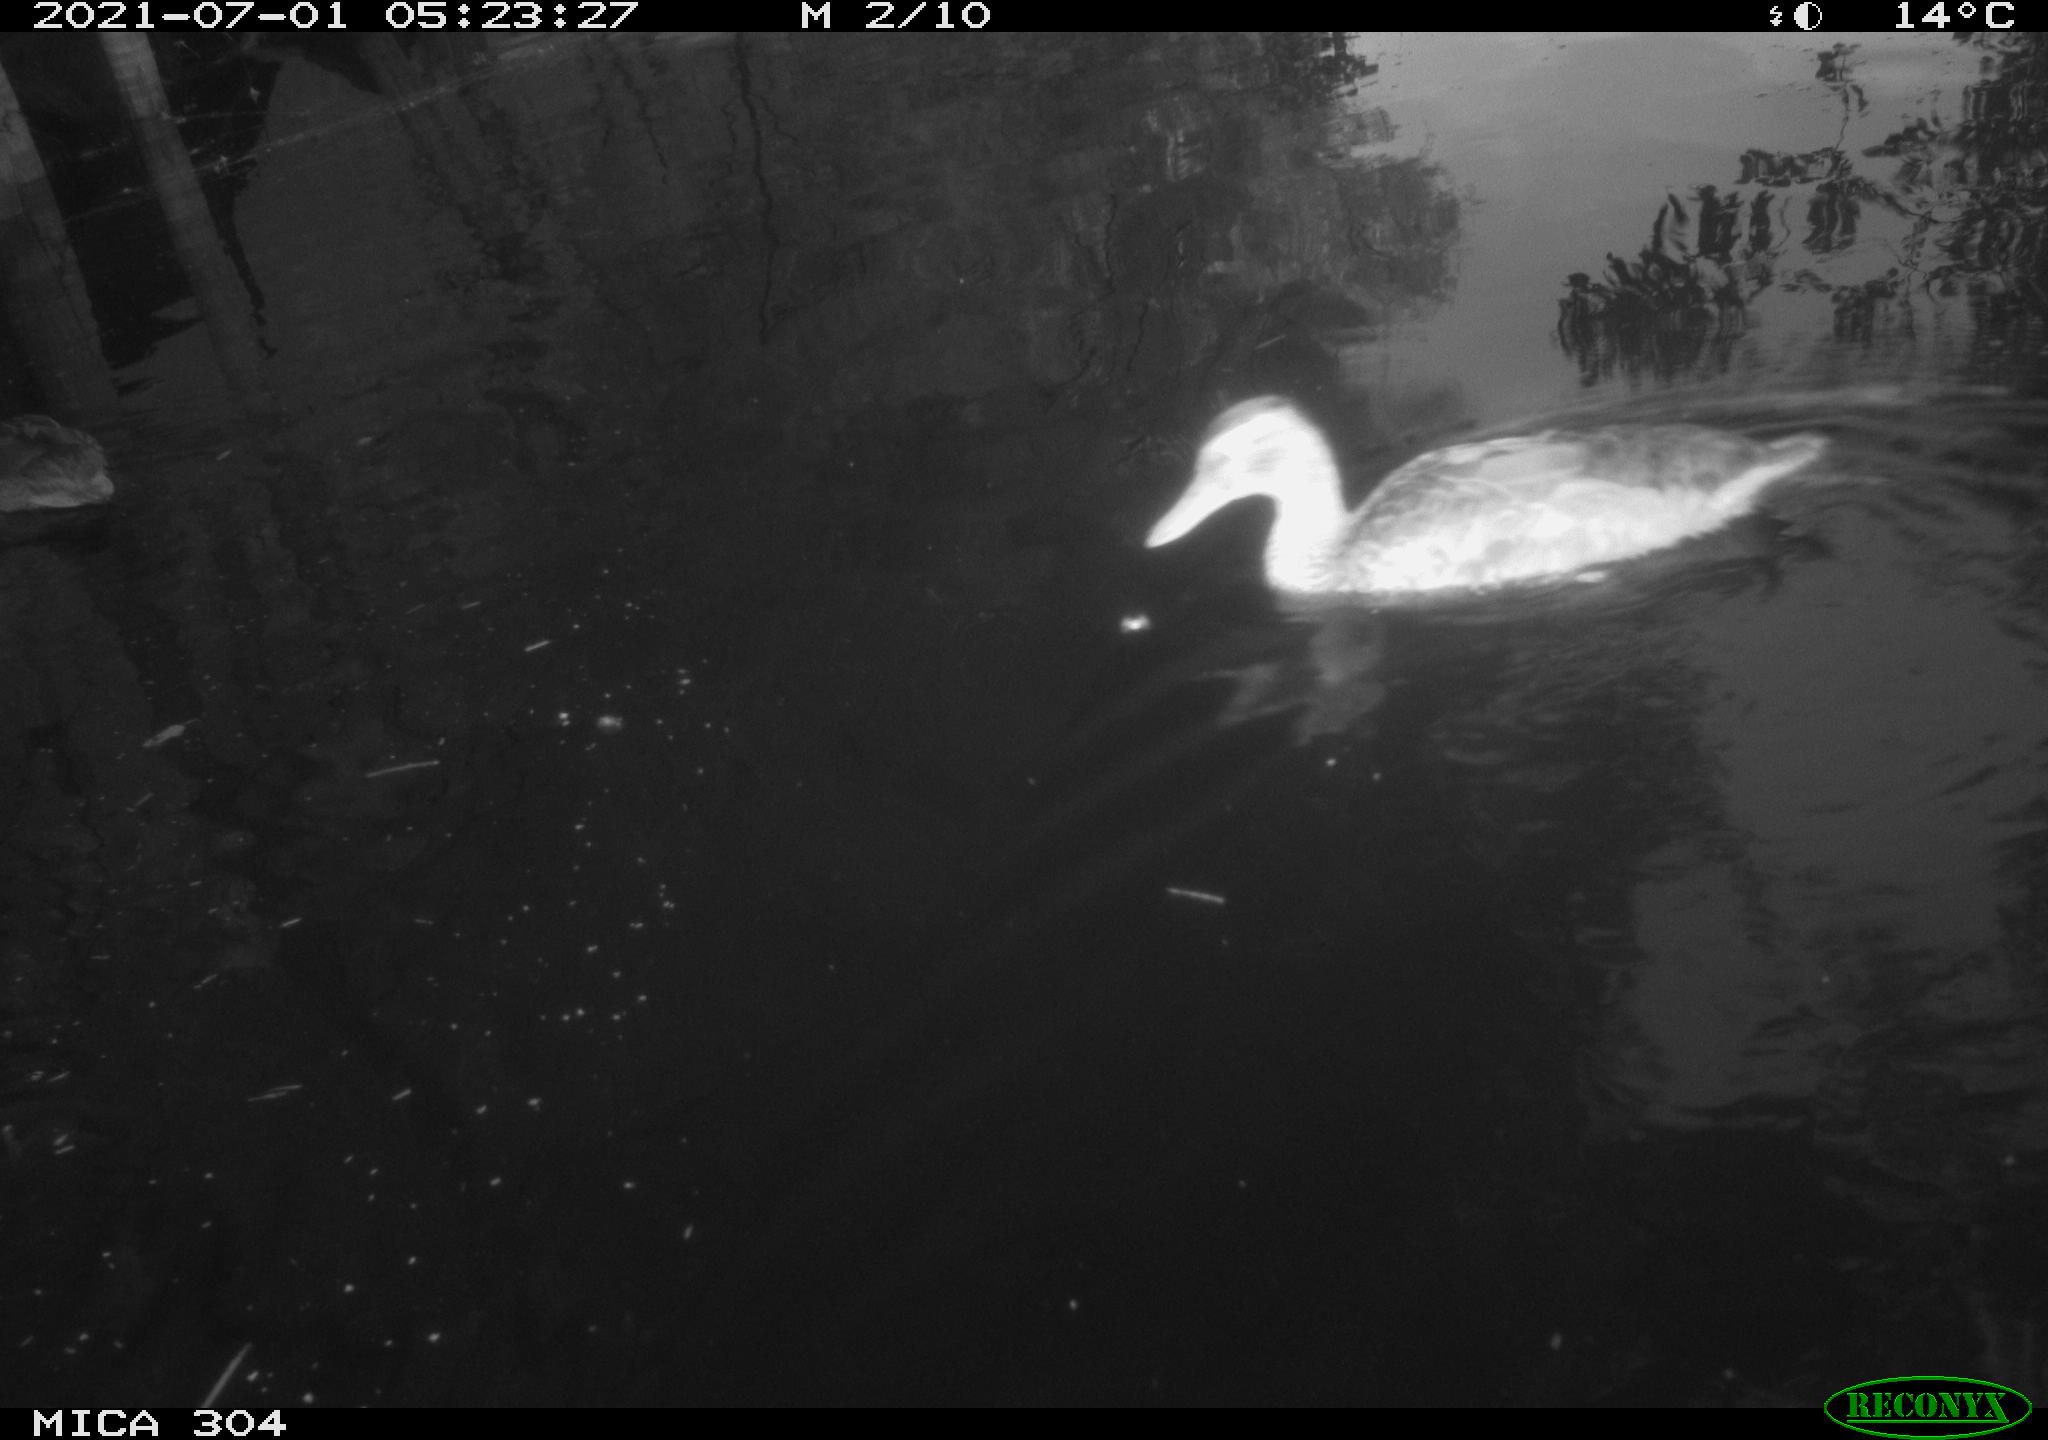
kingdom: Animalia
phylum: Chordata
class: Aves
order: Anseriformes
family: Anatidae
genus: Anas
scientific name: Anas platyrhynchos
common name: Mallard
